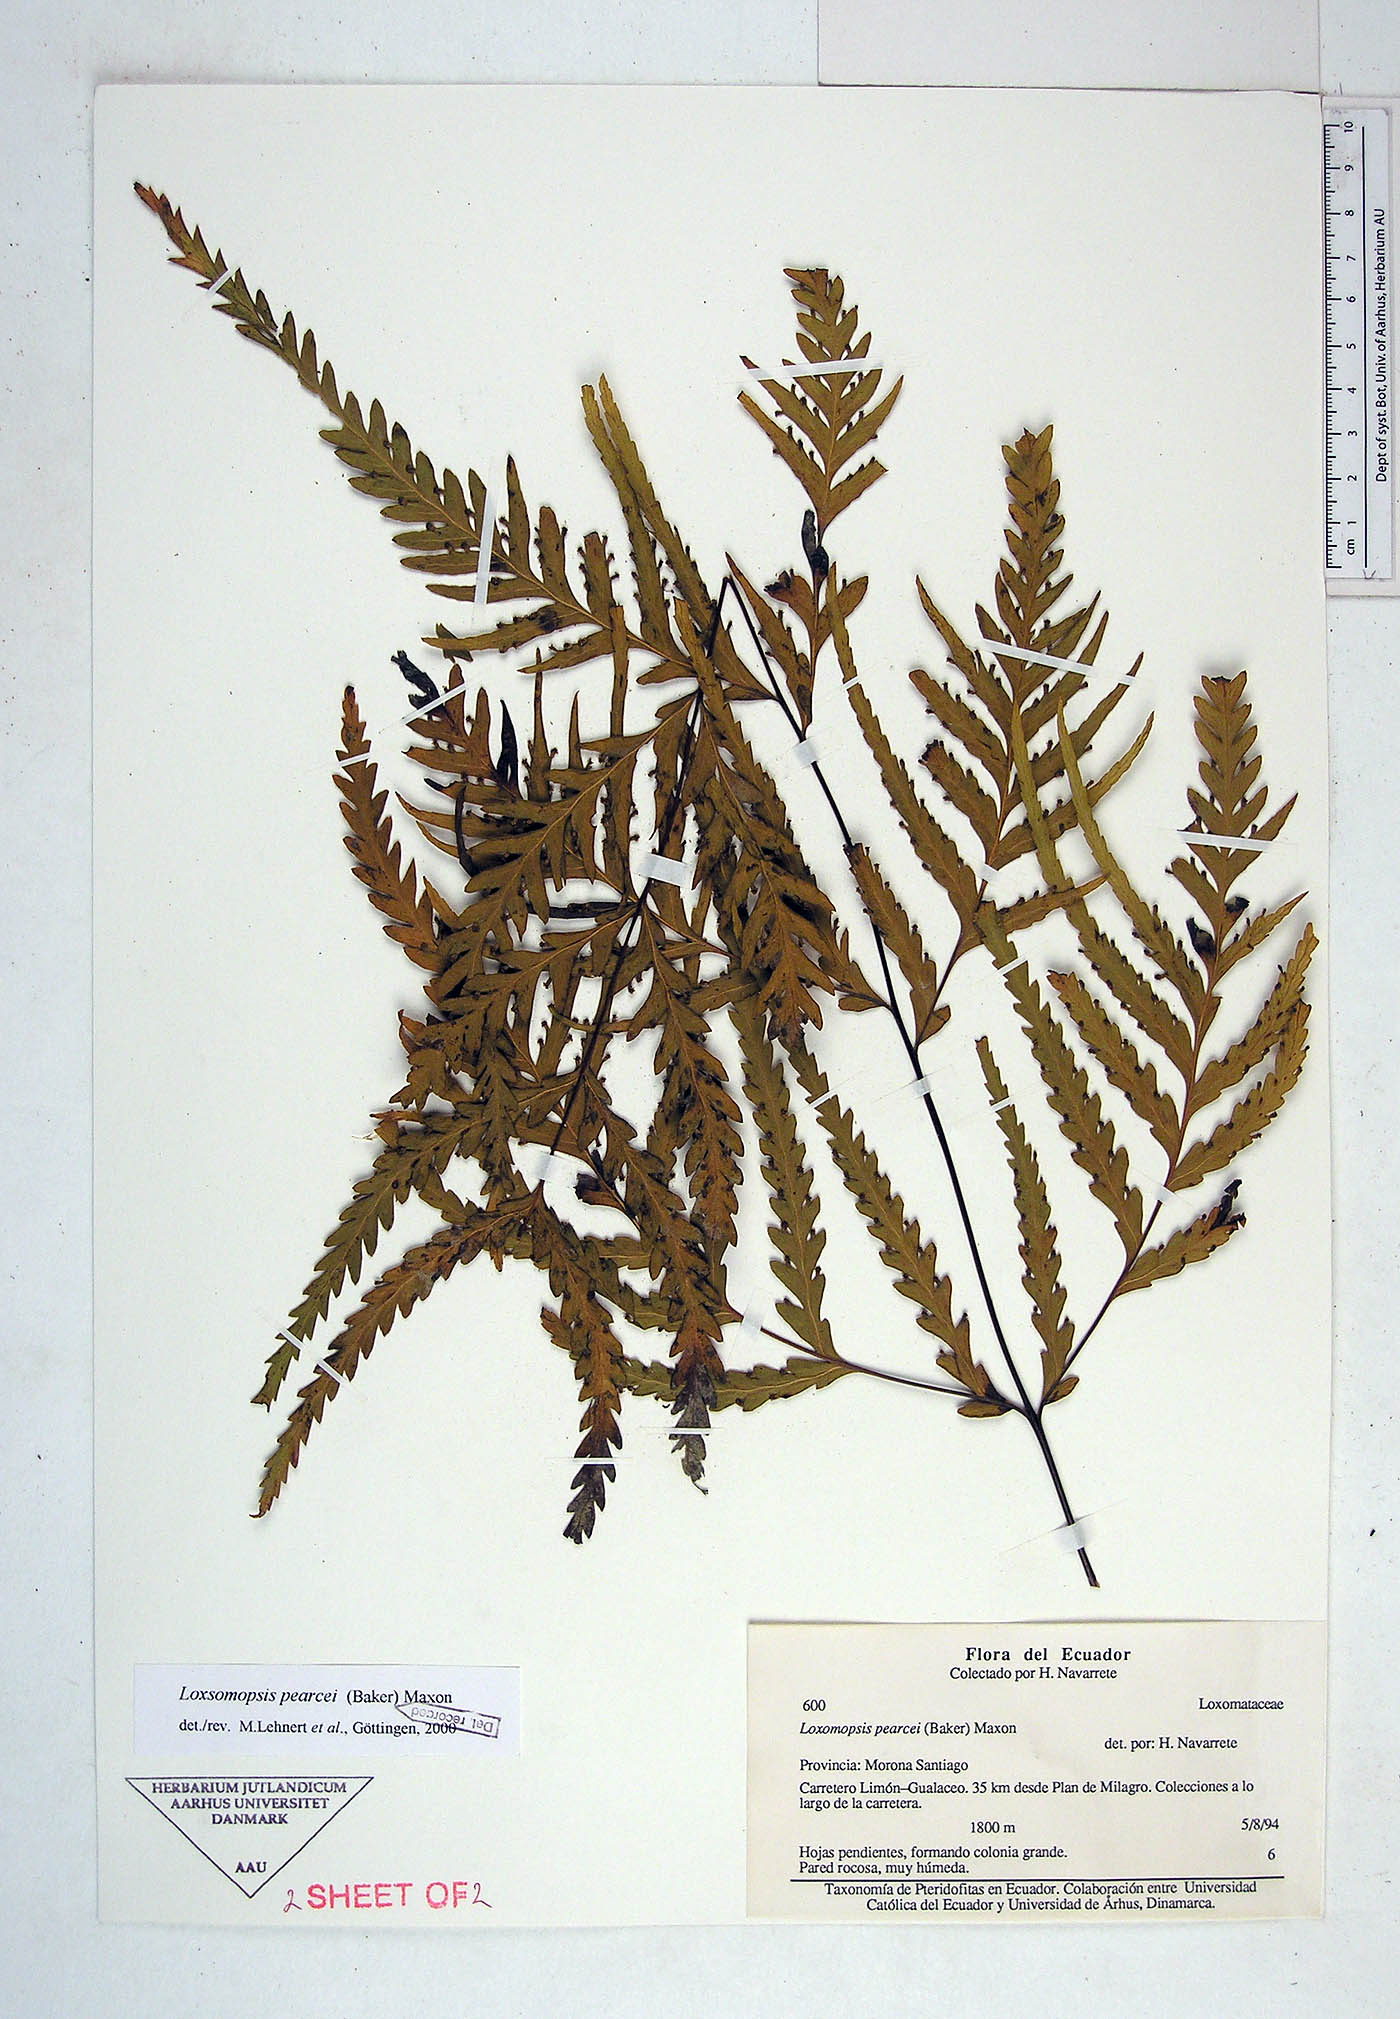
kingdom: Plantae
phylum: Tracheophyta
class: Polypodiopsida
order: Cyatheales
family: Loxsomataceae
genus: Loxsomopsis
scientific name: Loxsomopsis pearcei
